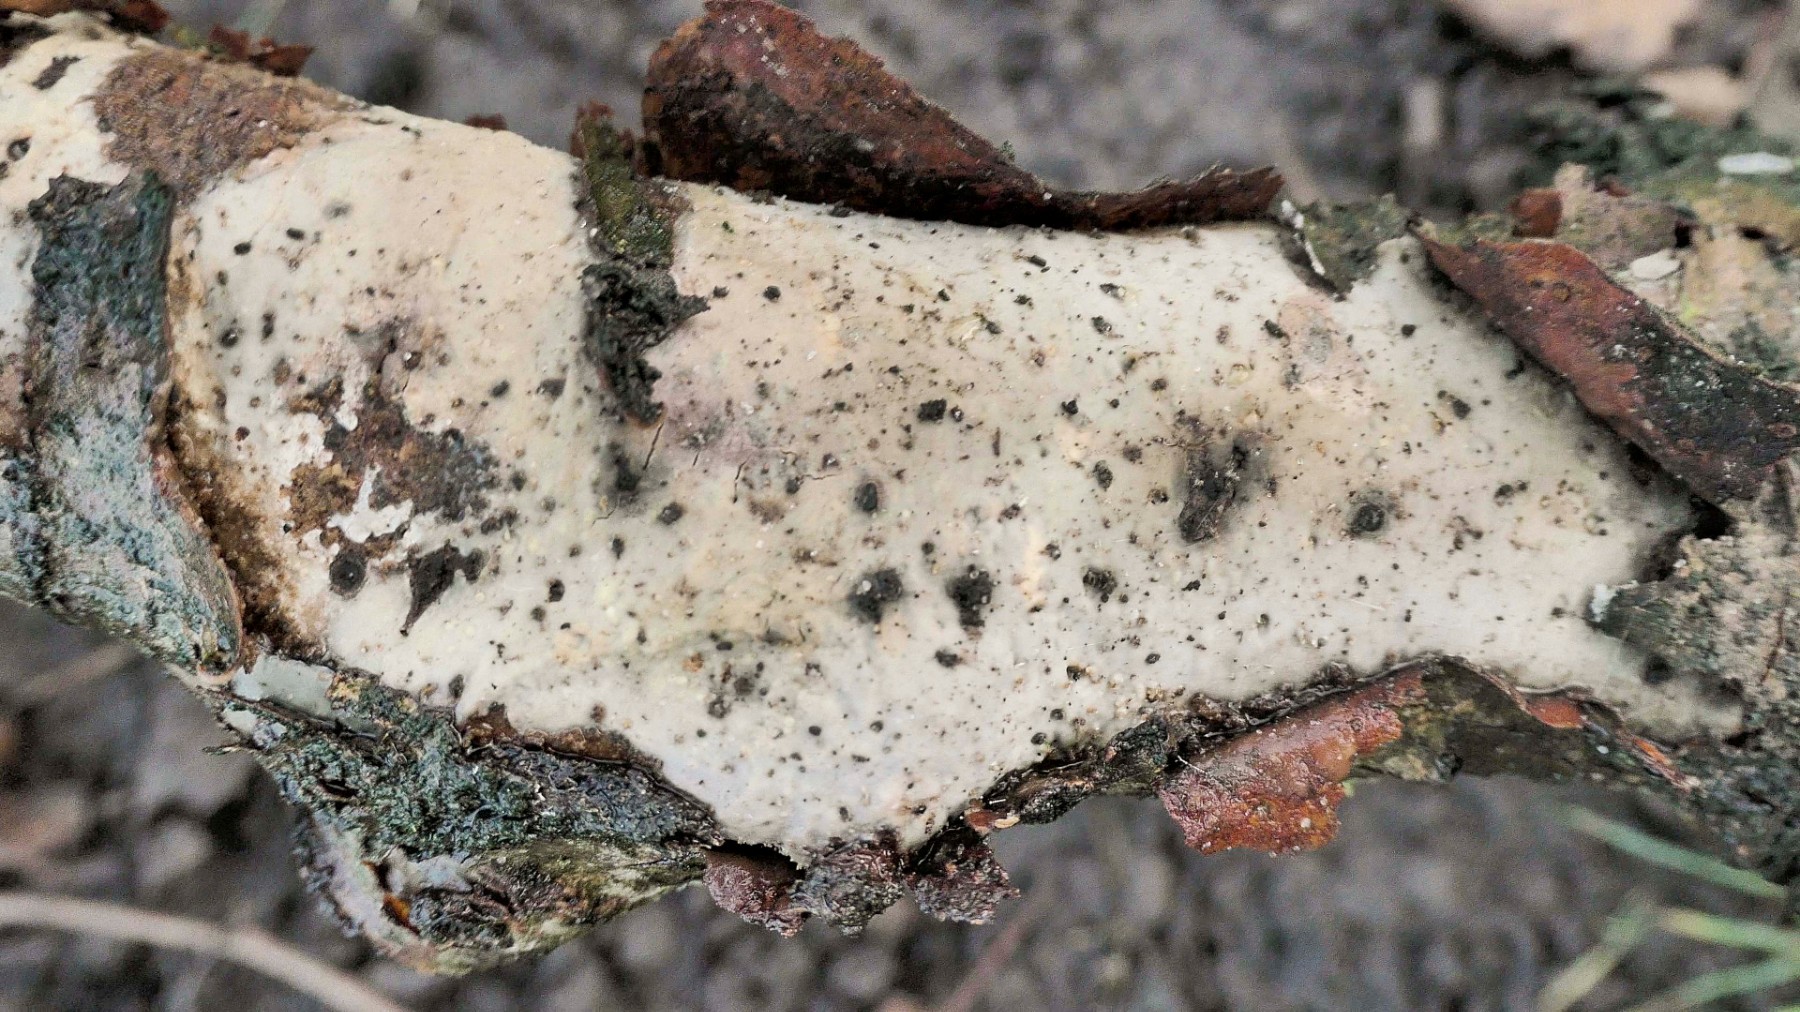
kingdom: Fungi
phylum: Basidiomycota
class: Agaricomycetes
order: Corticiales
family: Vuilleminiaceae
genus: Vuilleminia
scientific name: Vuilleminia comedens
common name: almindelig barksprænger
